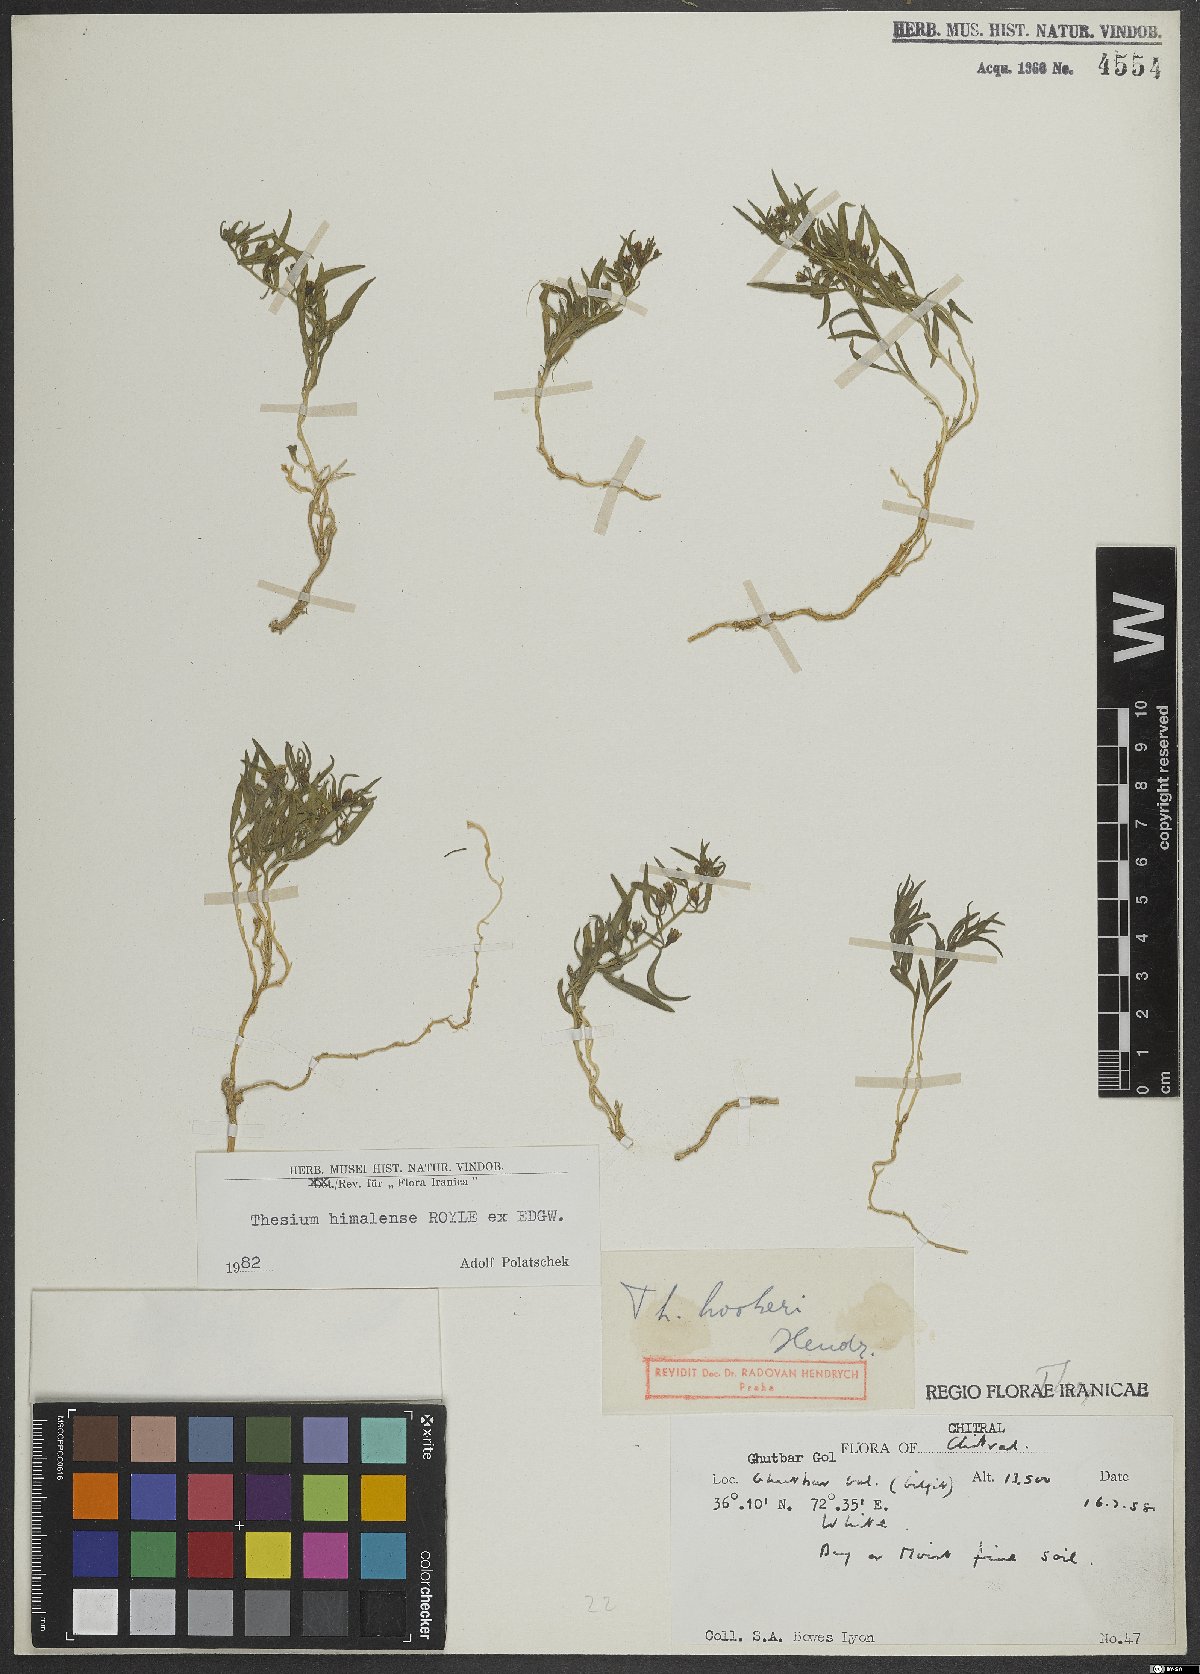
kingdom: Plantae
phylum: Tracheophyta
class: Magnoliopsida
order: Santalales
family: Thesiaceae
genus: Thesium
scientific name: Thesium himalense
